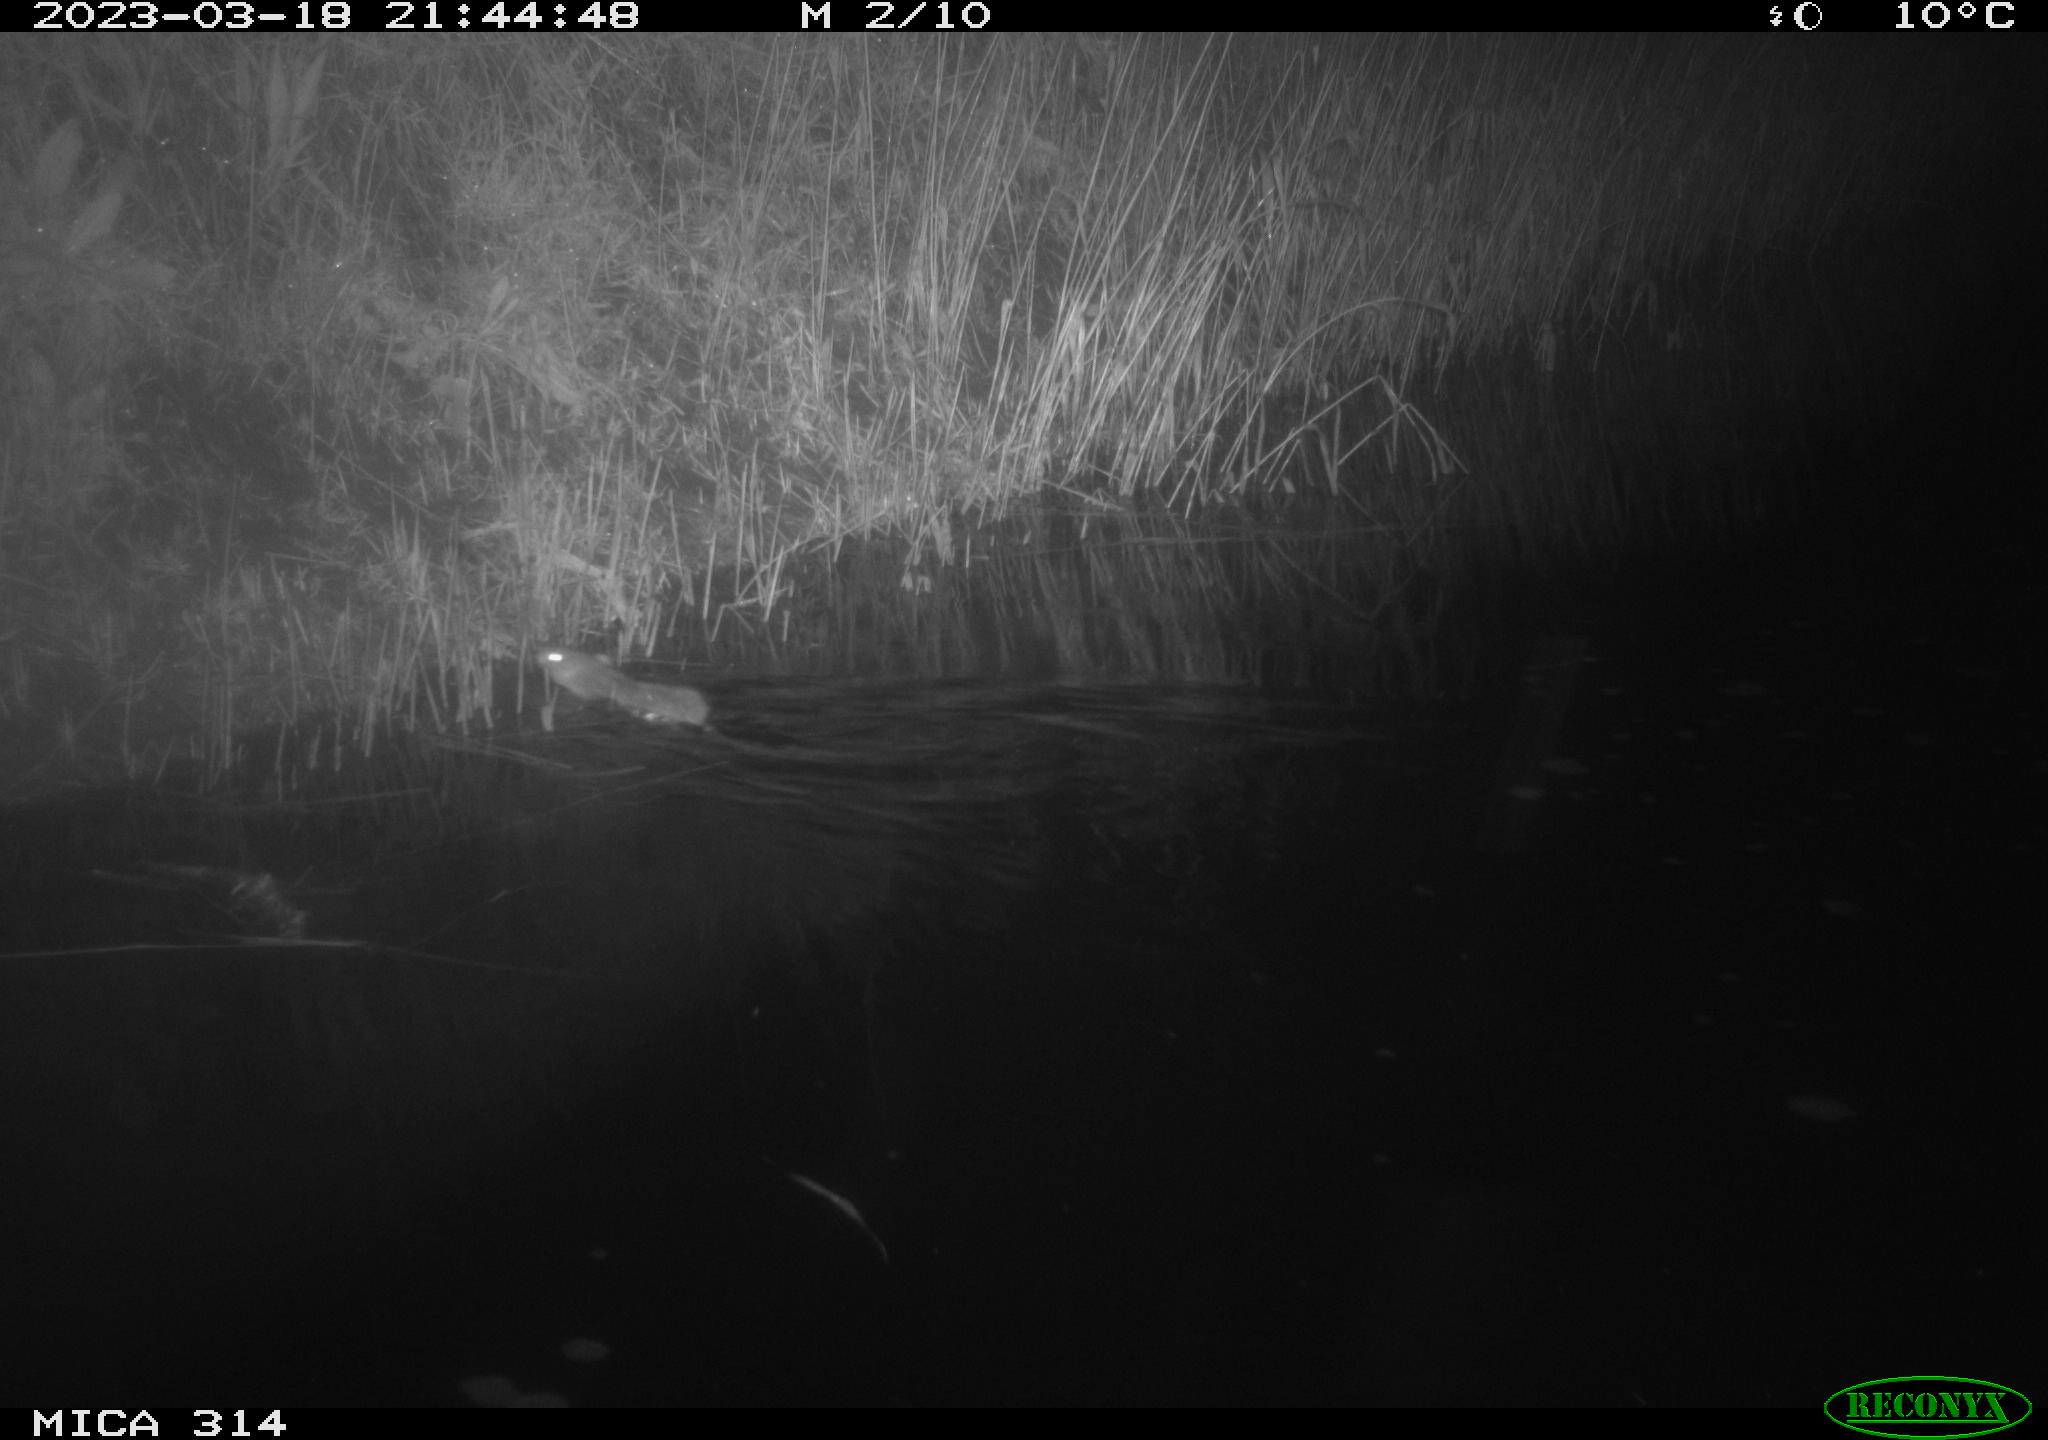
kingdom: Animalia
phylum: Chordata
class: Mammalia
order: Rodentia
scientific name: Rodentia
